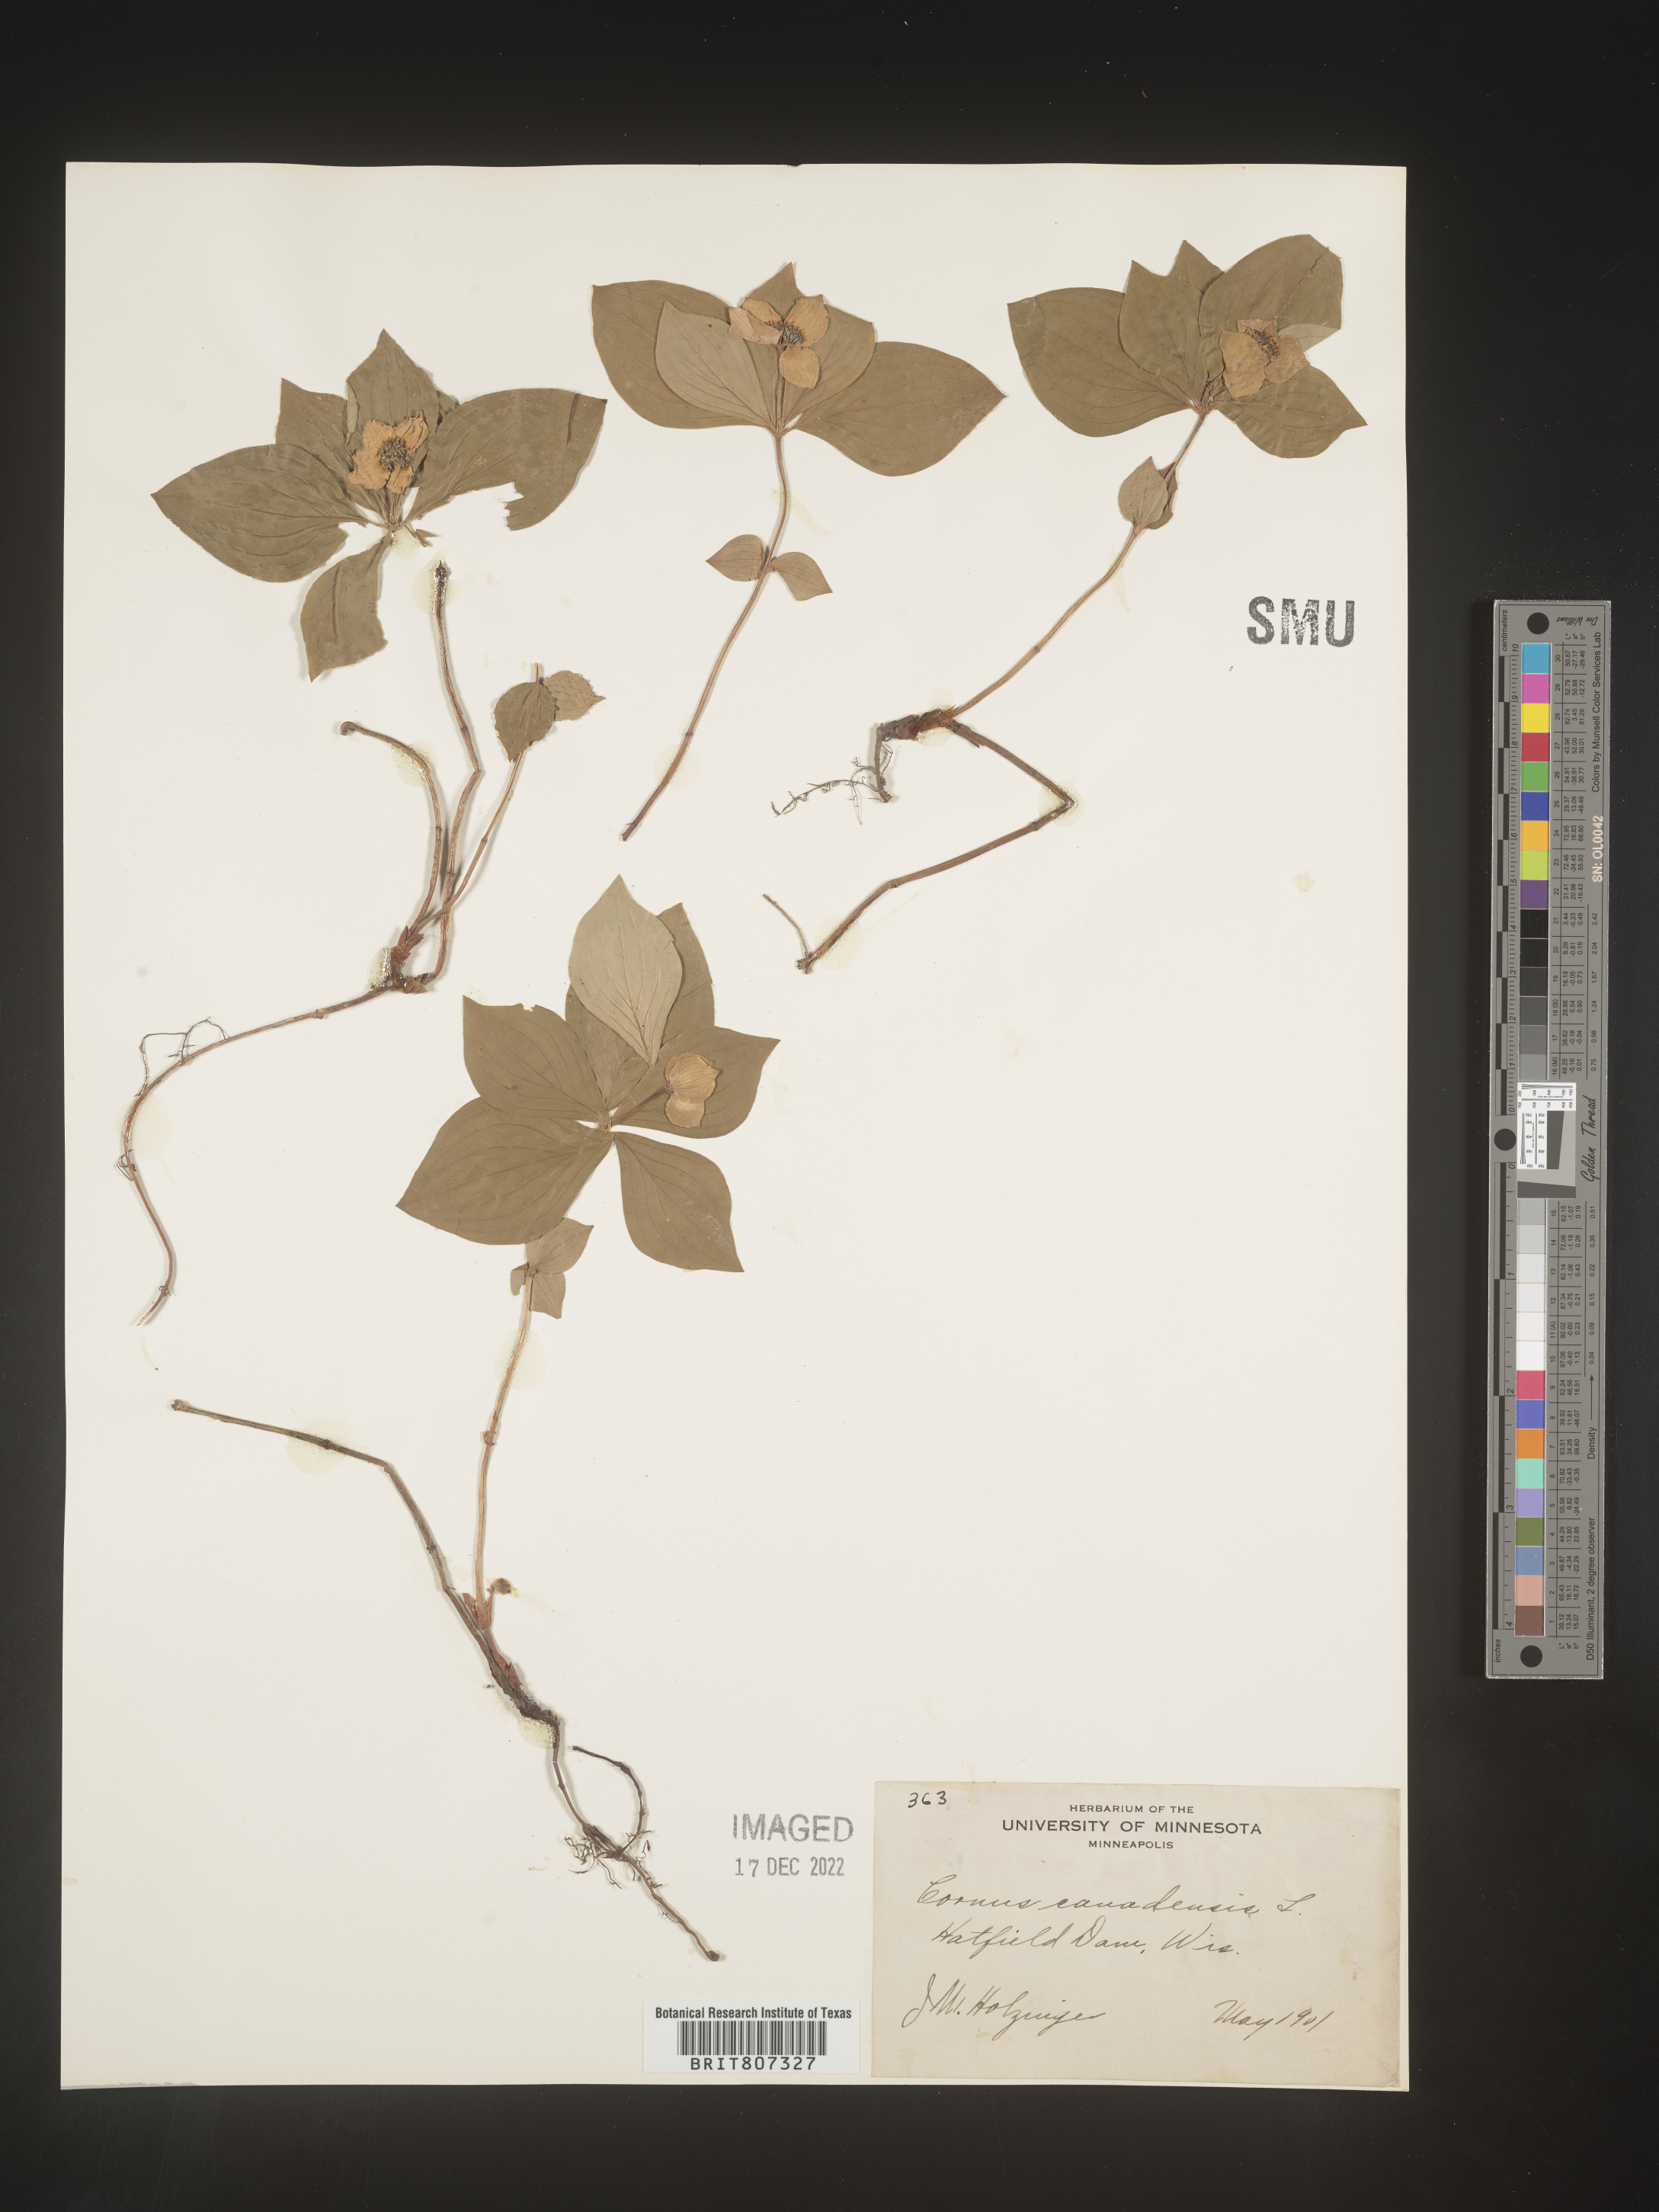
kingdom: Plantae
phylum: Tracheophyta
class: Magnoliopsida
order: Cornales
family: Cornaceae
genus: Cornus
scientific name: Cornus canadensis
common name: Creeping dogwood
